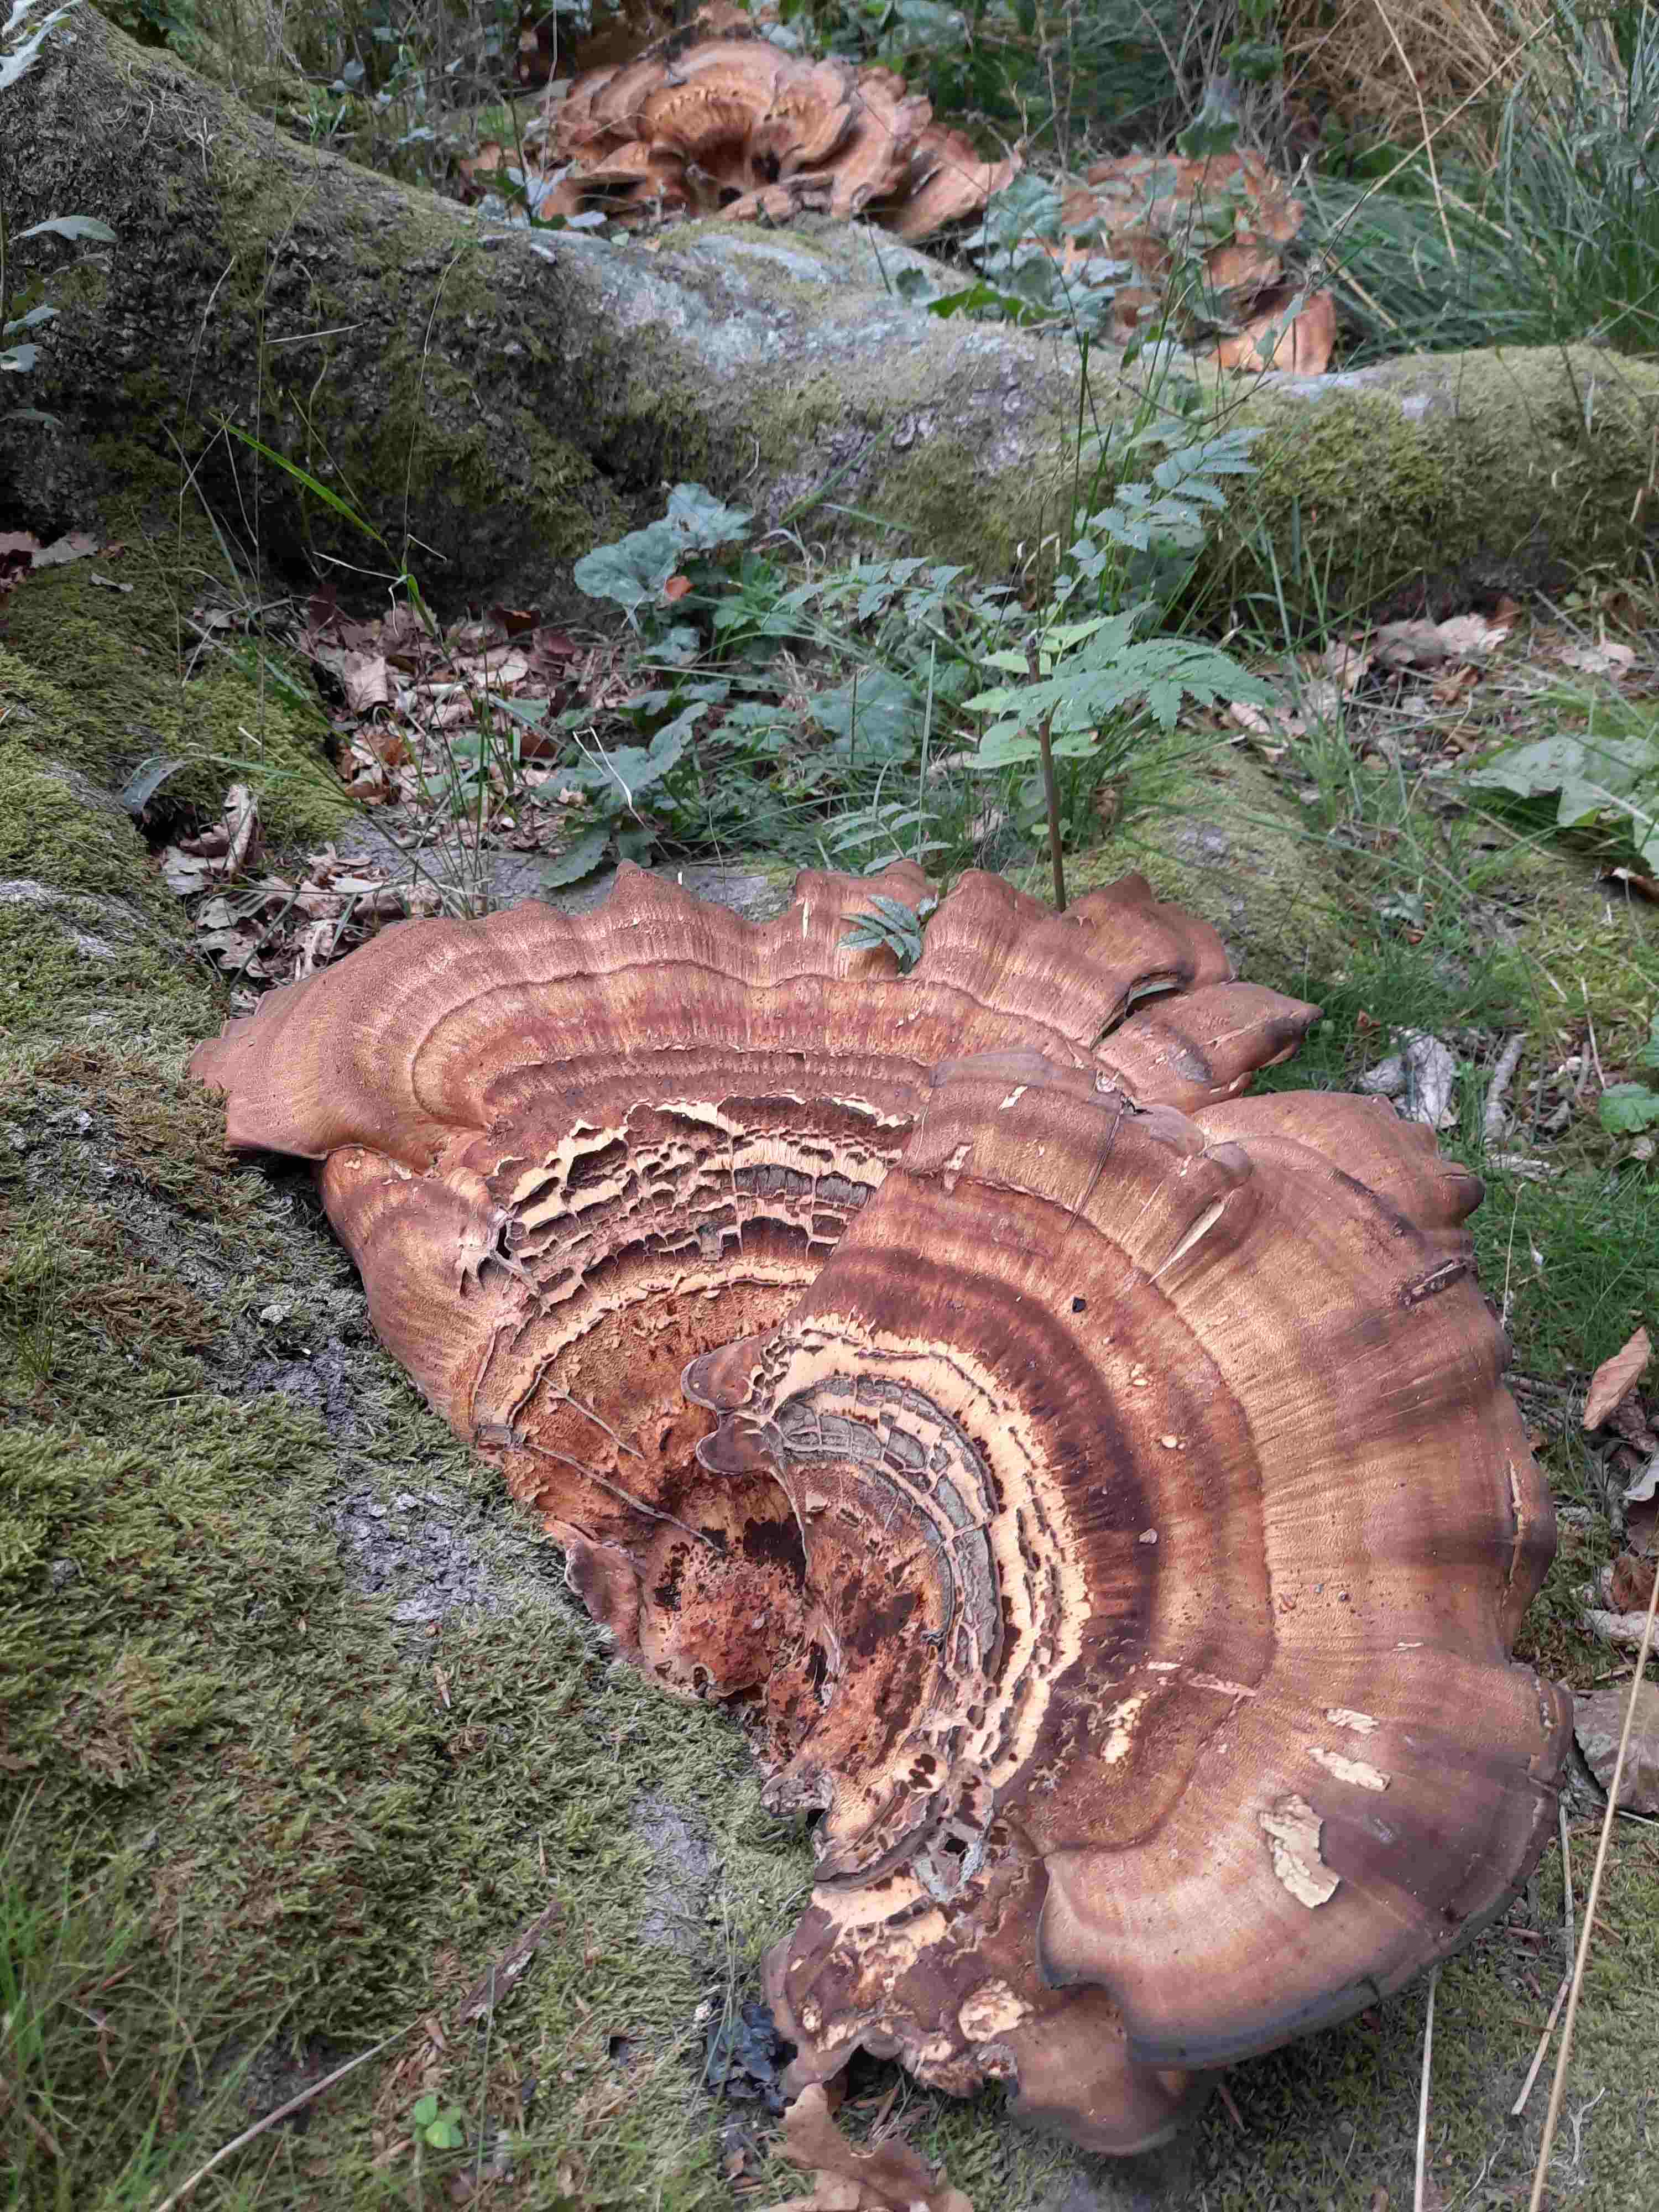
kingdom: Fungi
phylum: Basidiomycota
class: Agaricomycetes
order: Polyporales
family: Meripilaceae
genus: Meripilus
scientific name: Meripilus giganteus
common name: kæmpeporesvamp
